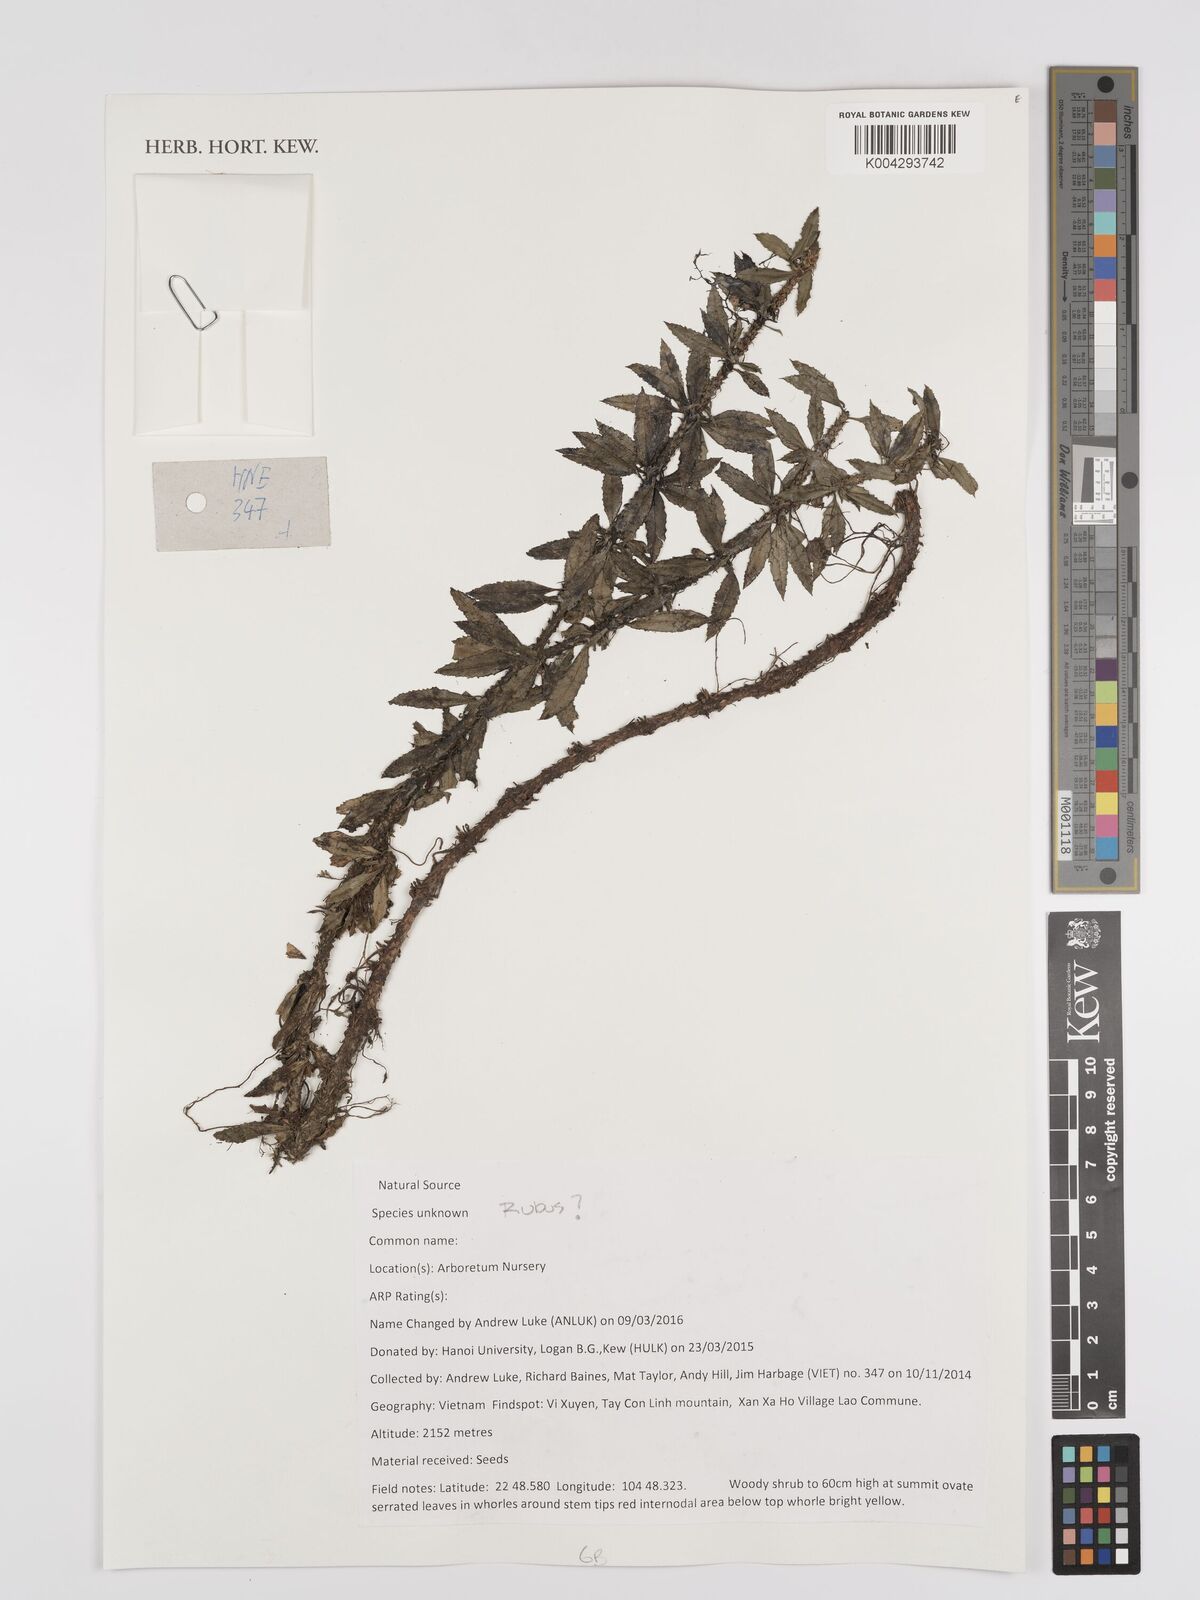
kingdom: Plantae
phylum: Tracheophyta
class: Magnoliopsida
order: Rosales
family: Rosaceae
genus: Rubus
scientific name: Rubus
